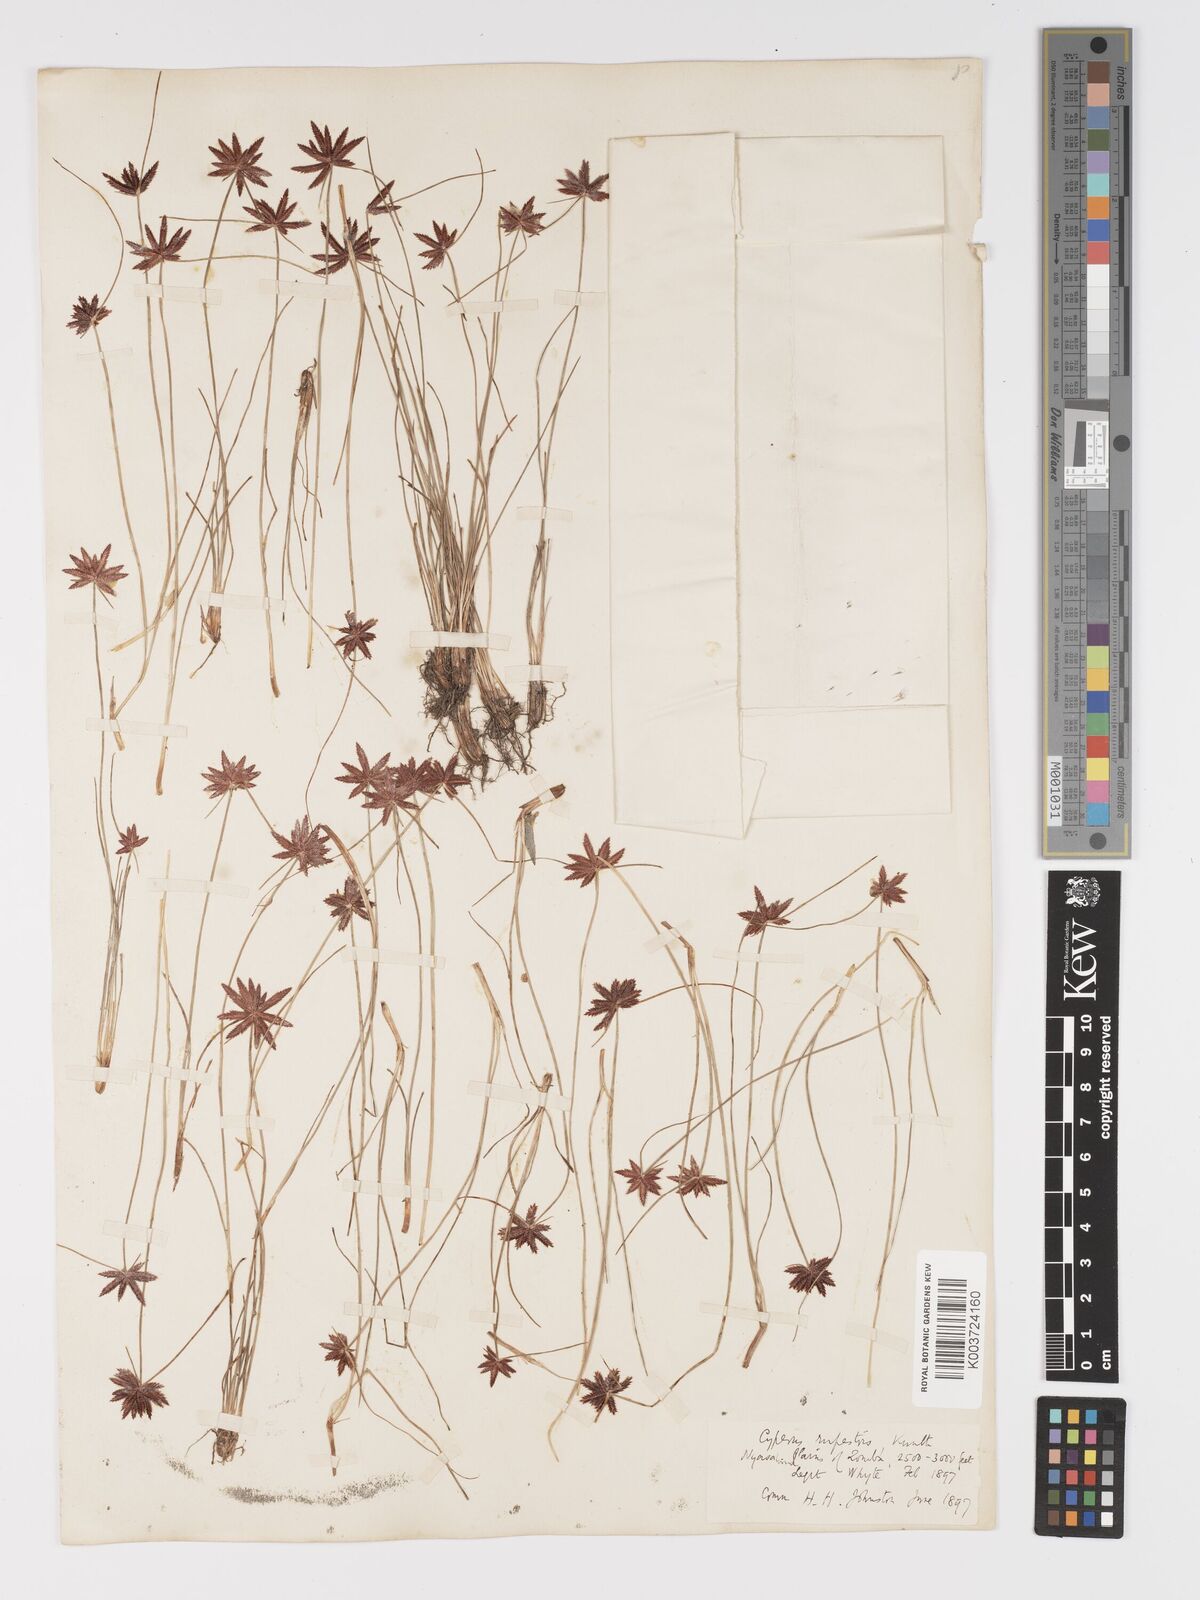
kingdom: Plantae
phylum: Tracheophyta
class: Liliopsida
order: Poales
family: Cyperaceae
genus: Cyperus
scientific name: Cyperus rupestris
